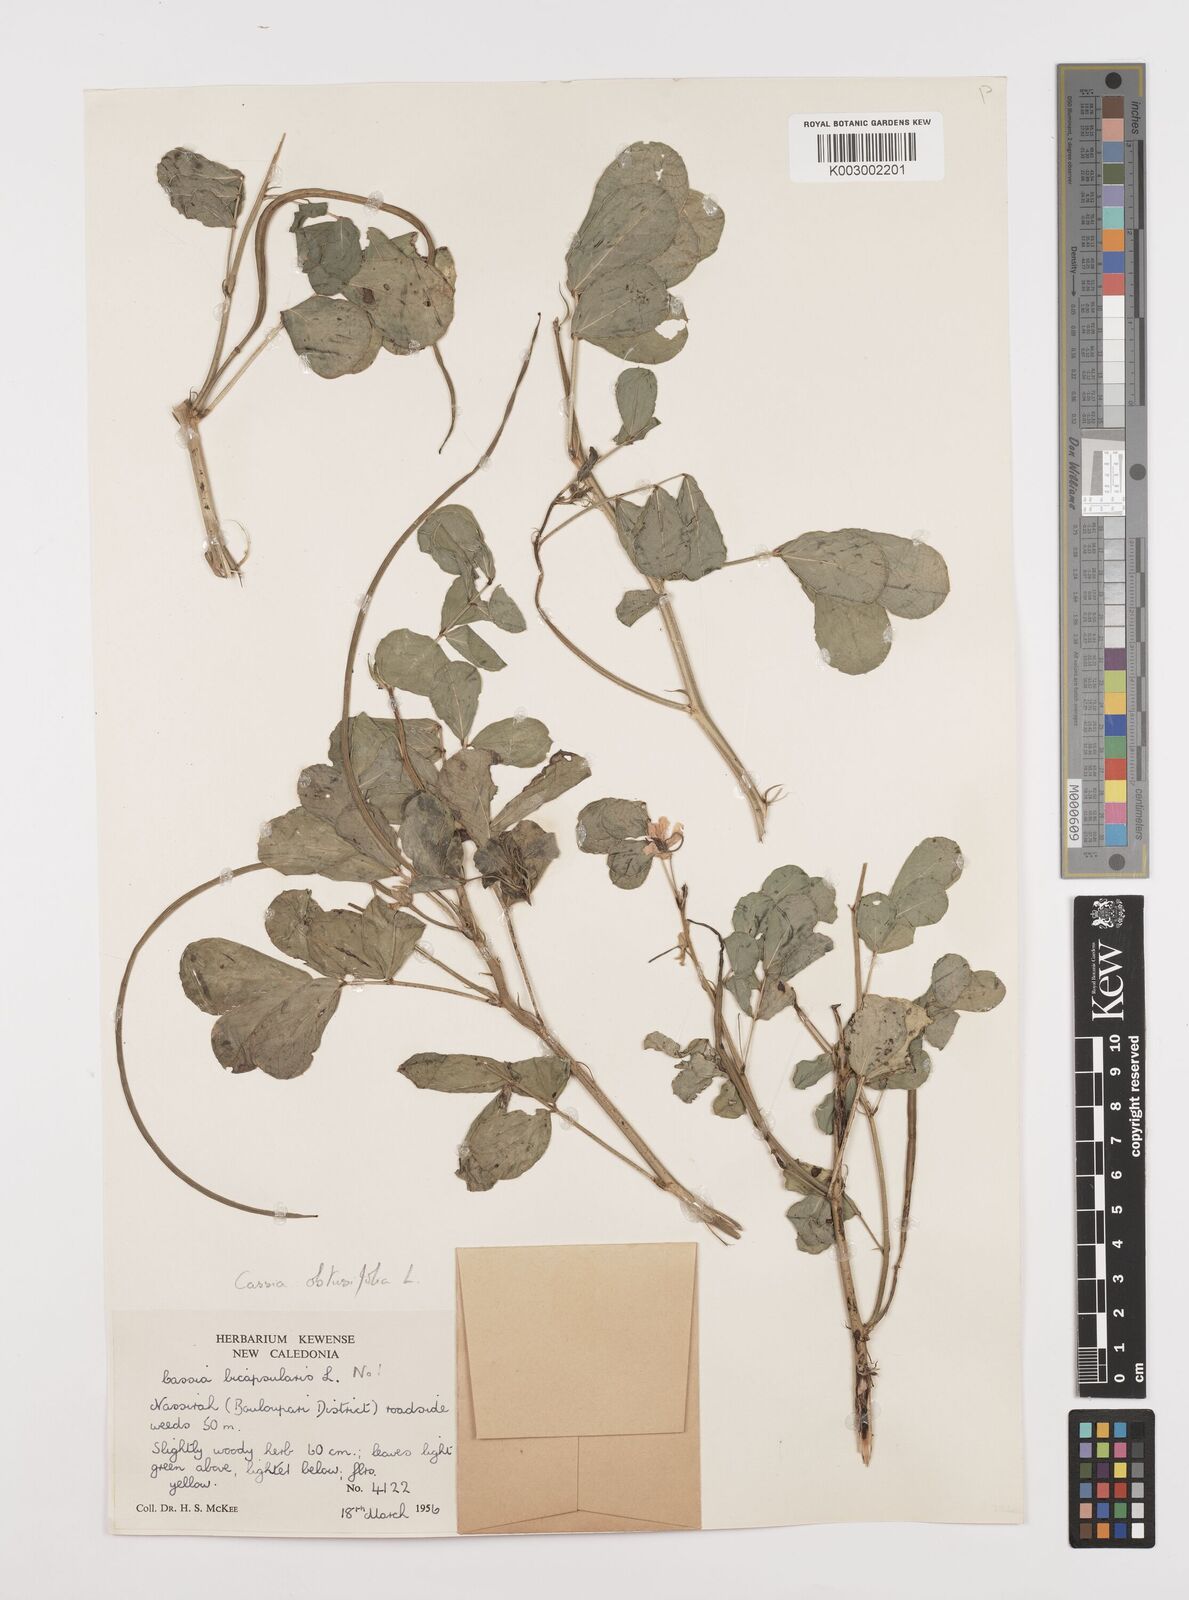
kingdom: Plantae
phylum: Tracheophyta
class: Magnoliopsida
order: Fabales
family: Fabaceae
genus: Senna
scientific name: Senna obtusifolia
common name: Java-bean
